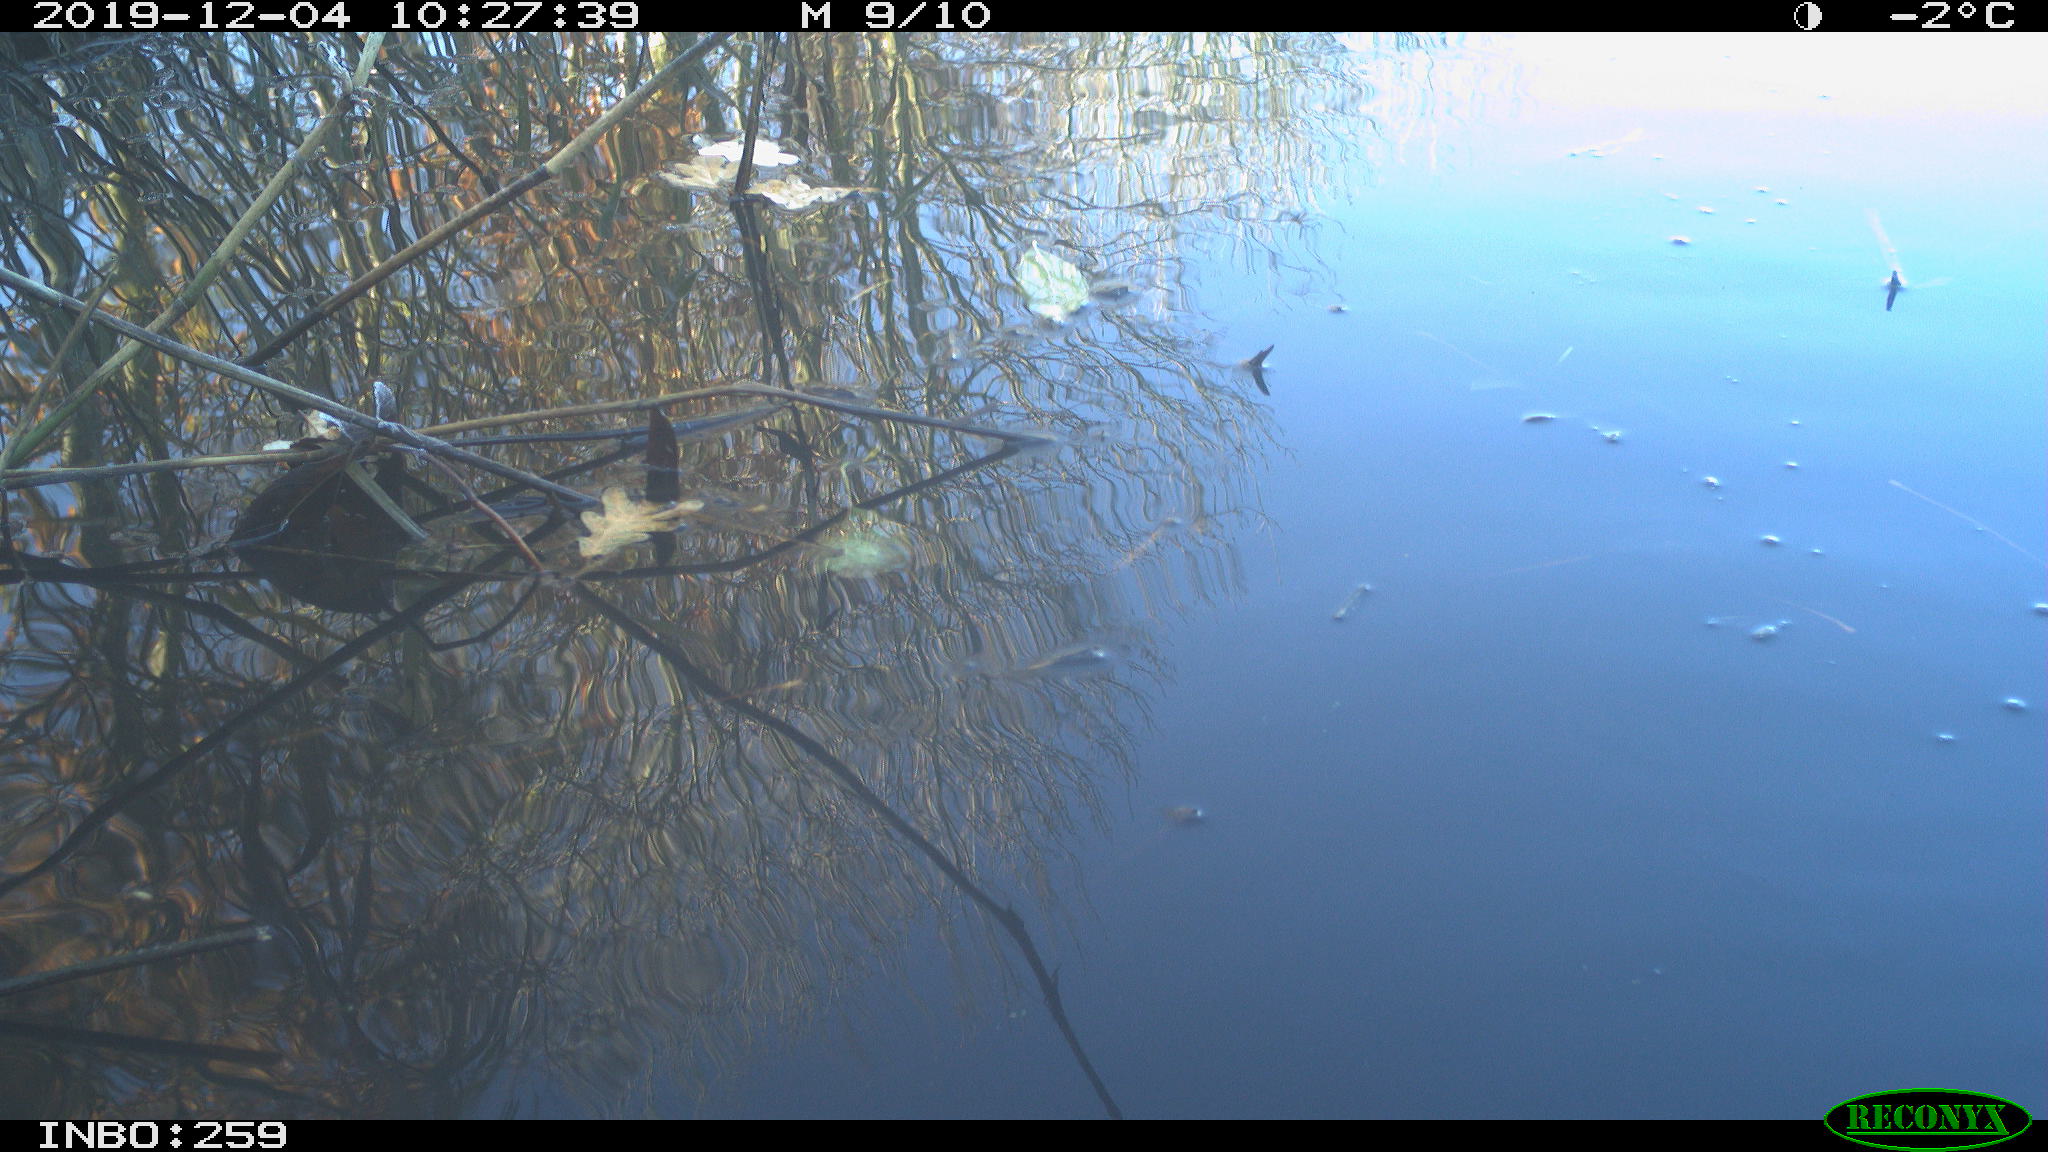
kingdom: Animalia
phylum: Chordata
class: Aves
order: Gruiformes
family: Rallidae
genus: Gallinula
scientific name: Gallinula chloropus
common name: Common moorhen
